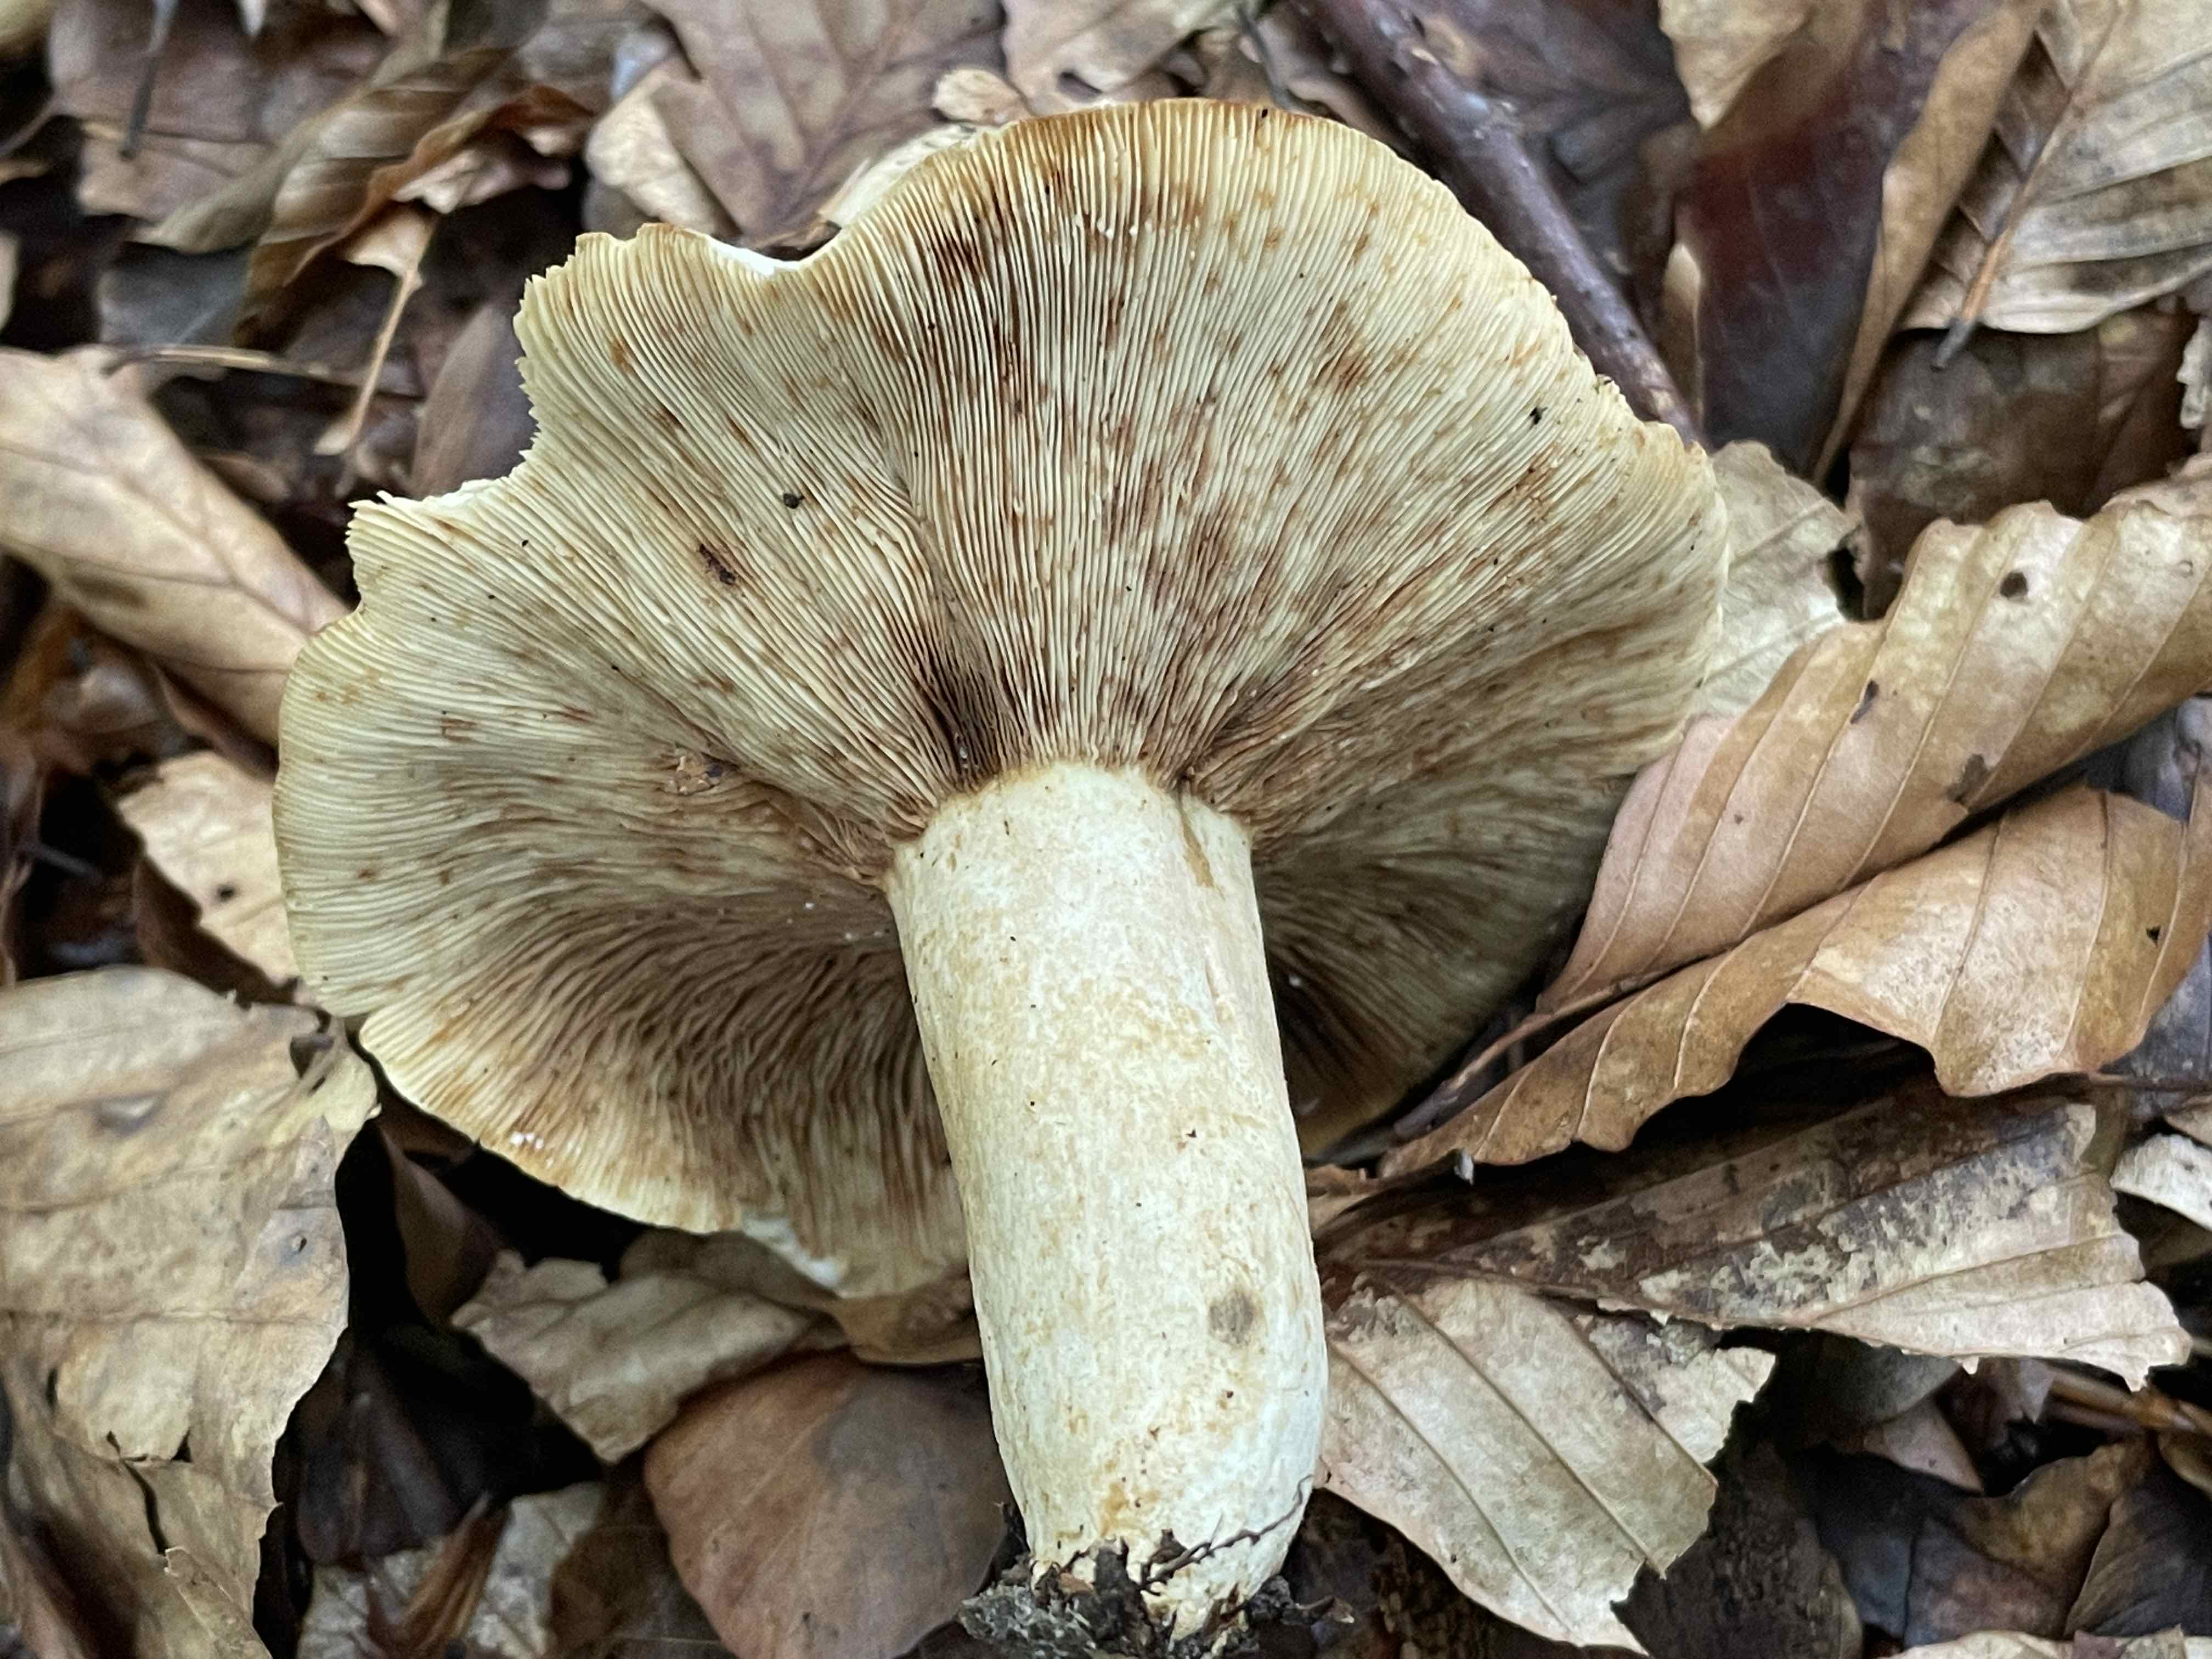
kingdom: Fungi
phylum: Basidiomycota
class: Agaricomycetes
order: Russulales
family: Russulaceae
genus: Lactifluus
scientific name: Lactifluus piperatus
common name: peber-mælkehat
